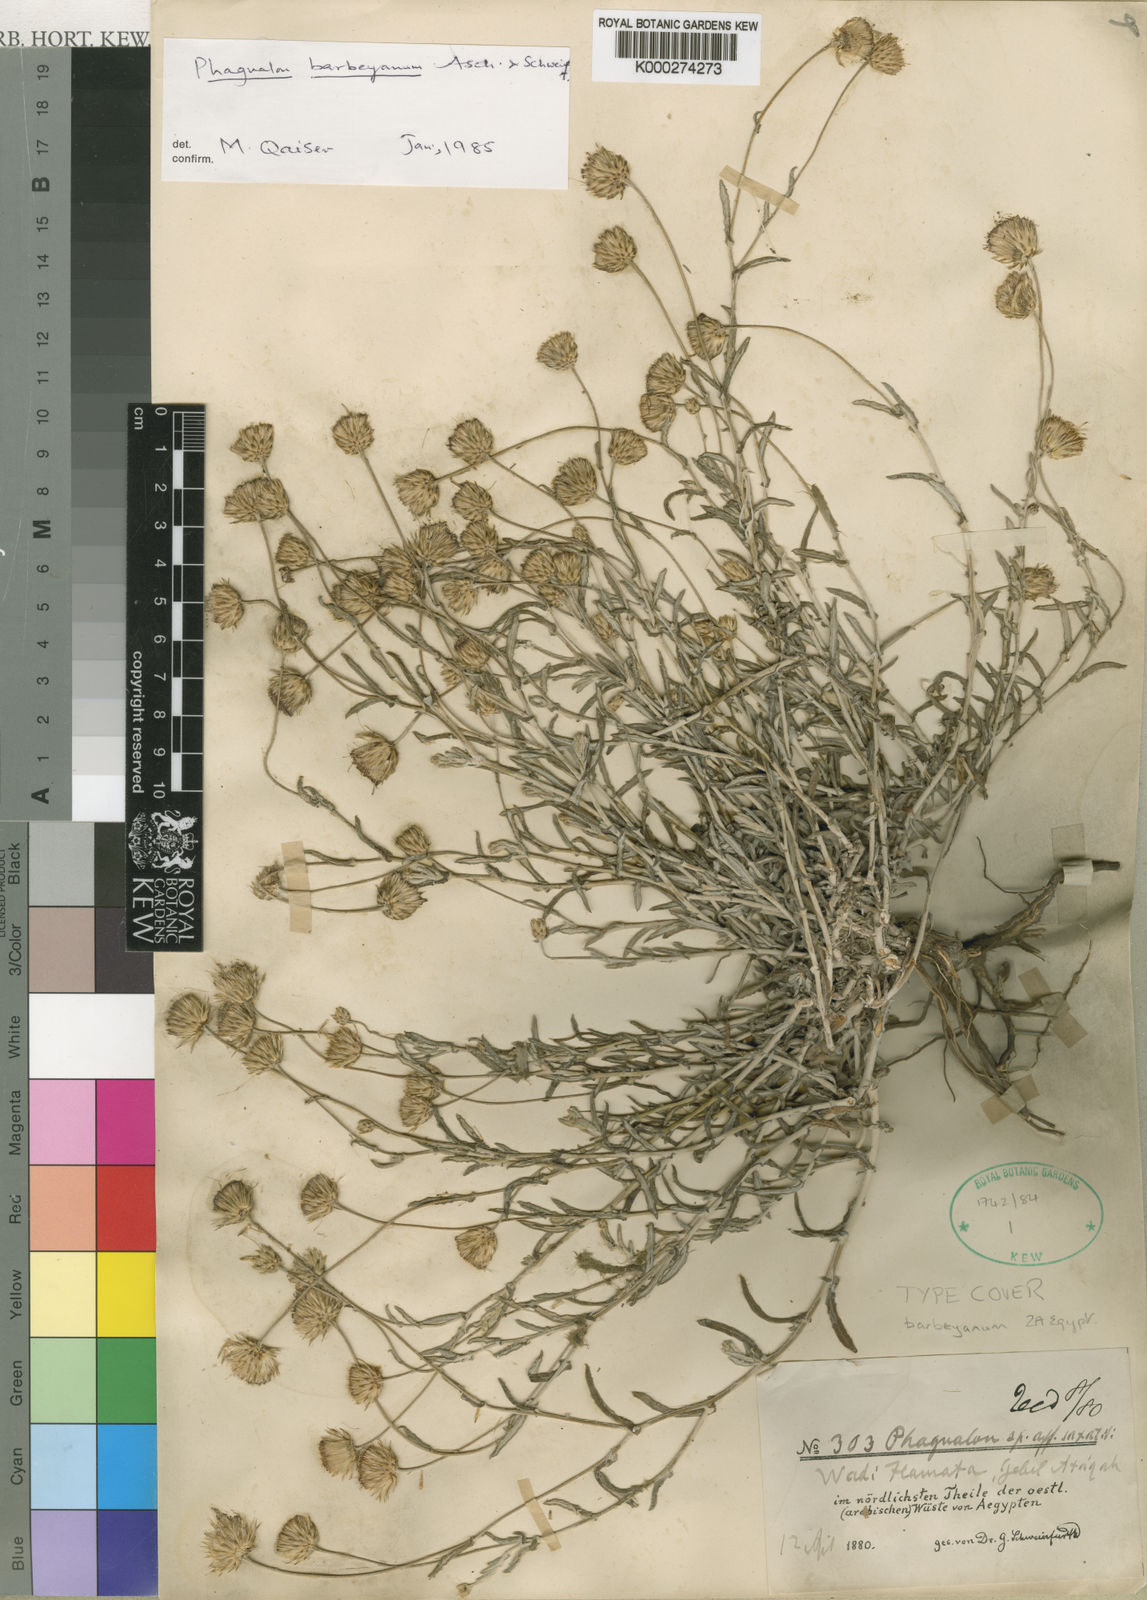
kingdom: Plantae
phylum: Tracheophyta
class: Magnoliopsida
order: Asterales
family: Asteraceae
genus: Phagnalon
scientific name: Phagnalon barbeyanum
